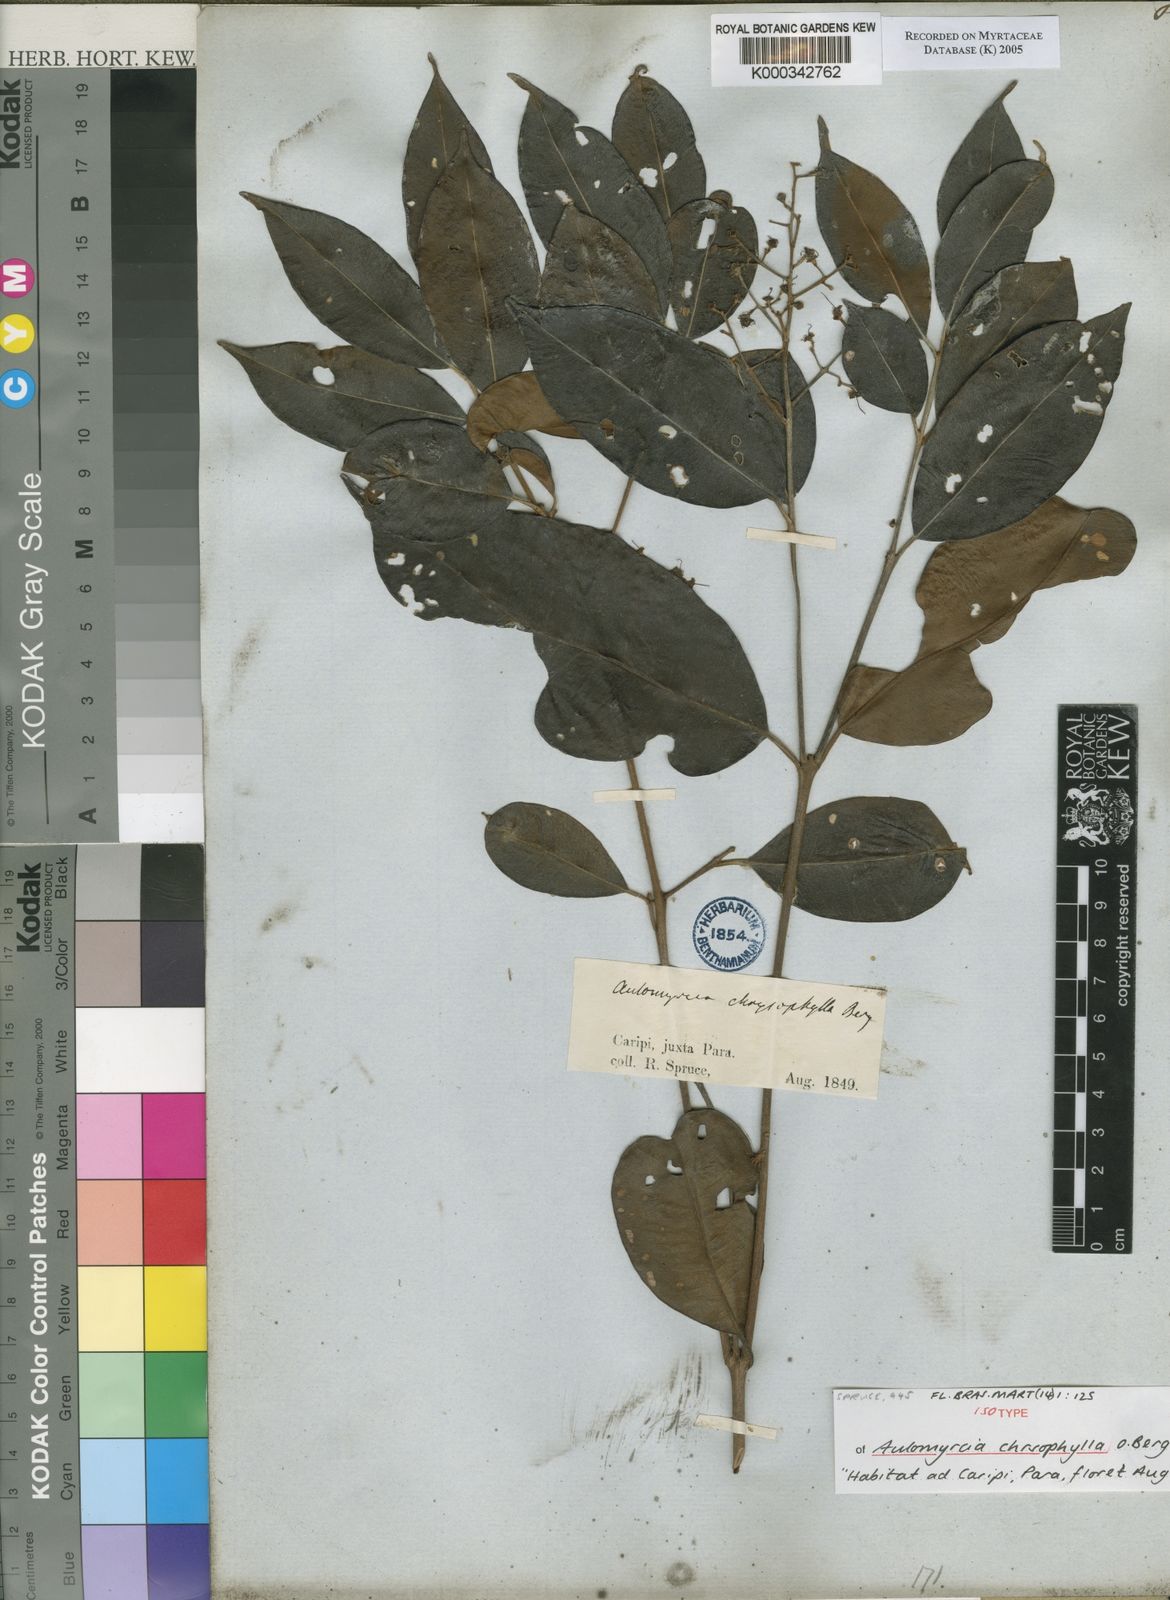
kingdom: Plantae
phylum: Tracheophyta
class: Magnoliopsida
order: Myrtales
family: Myrtaceae
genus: Myrcia
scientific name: Myrcia cuprea
